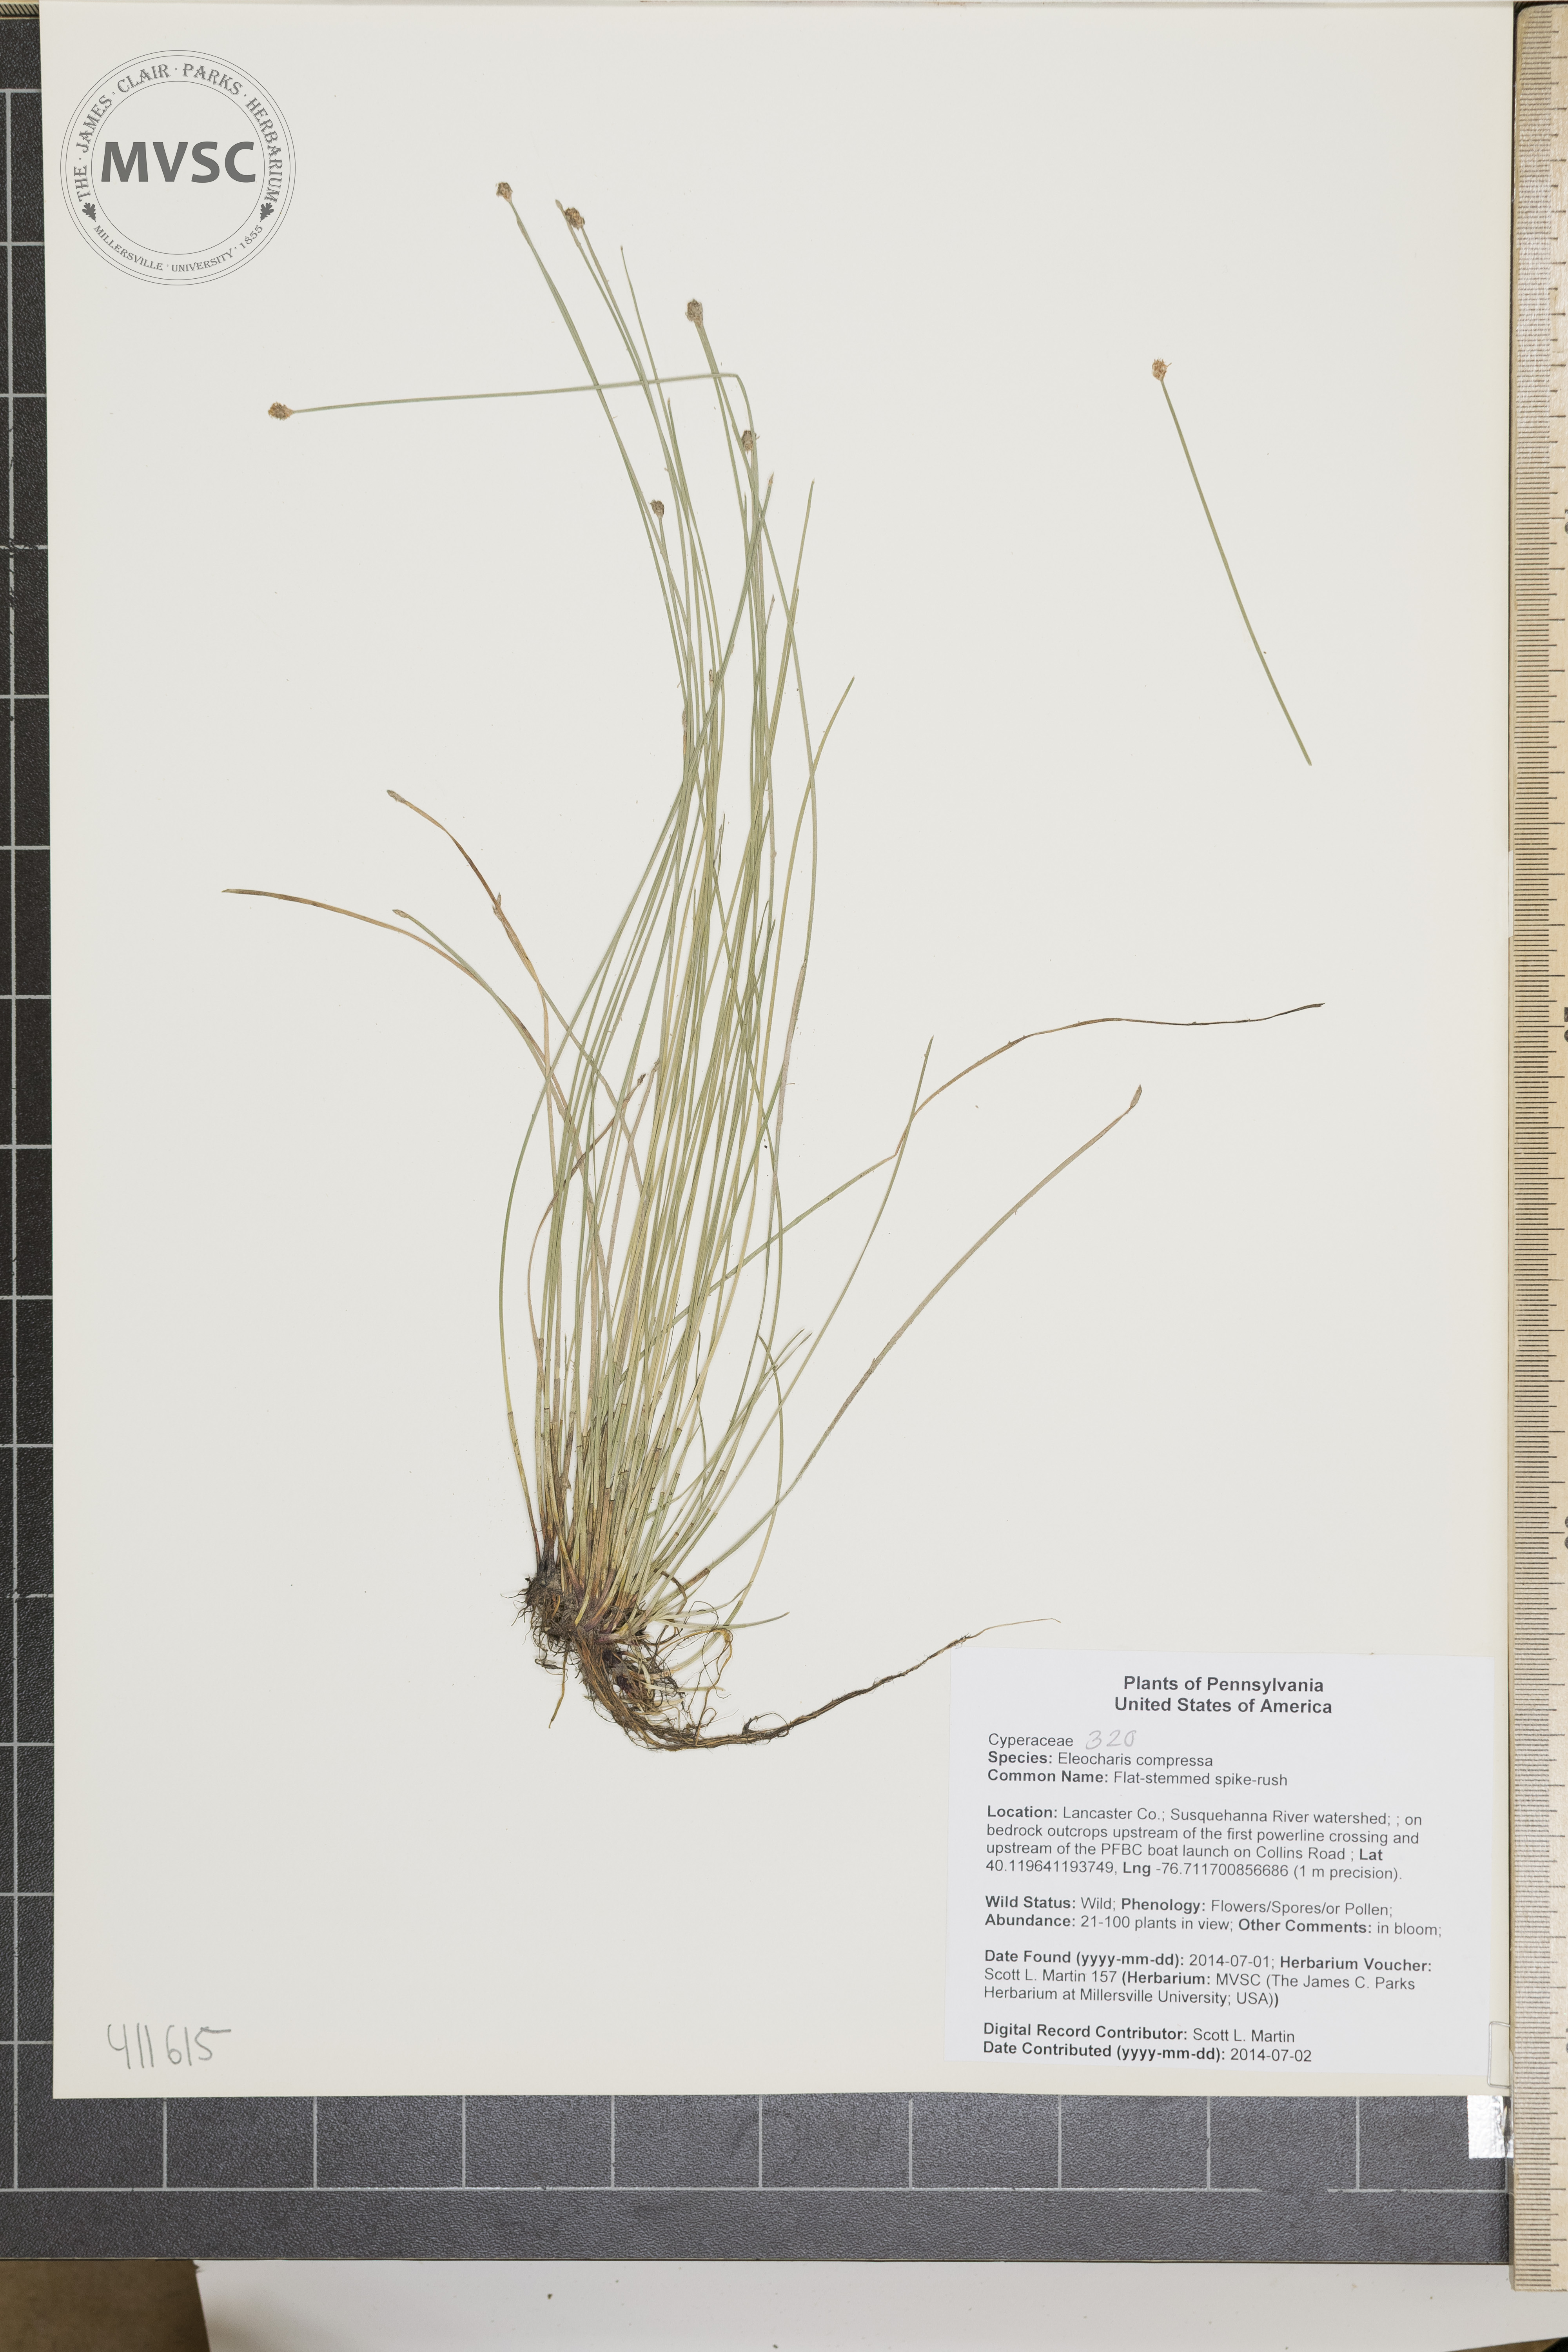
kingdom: Plantae
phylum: Tracheophyta
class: Liliopsida
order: Poales
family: Cyperaceae
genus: Eleocharis
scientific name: Eleocharis compressa
